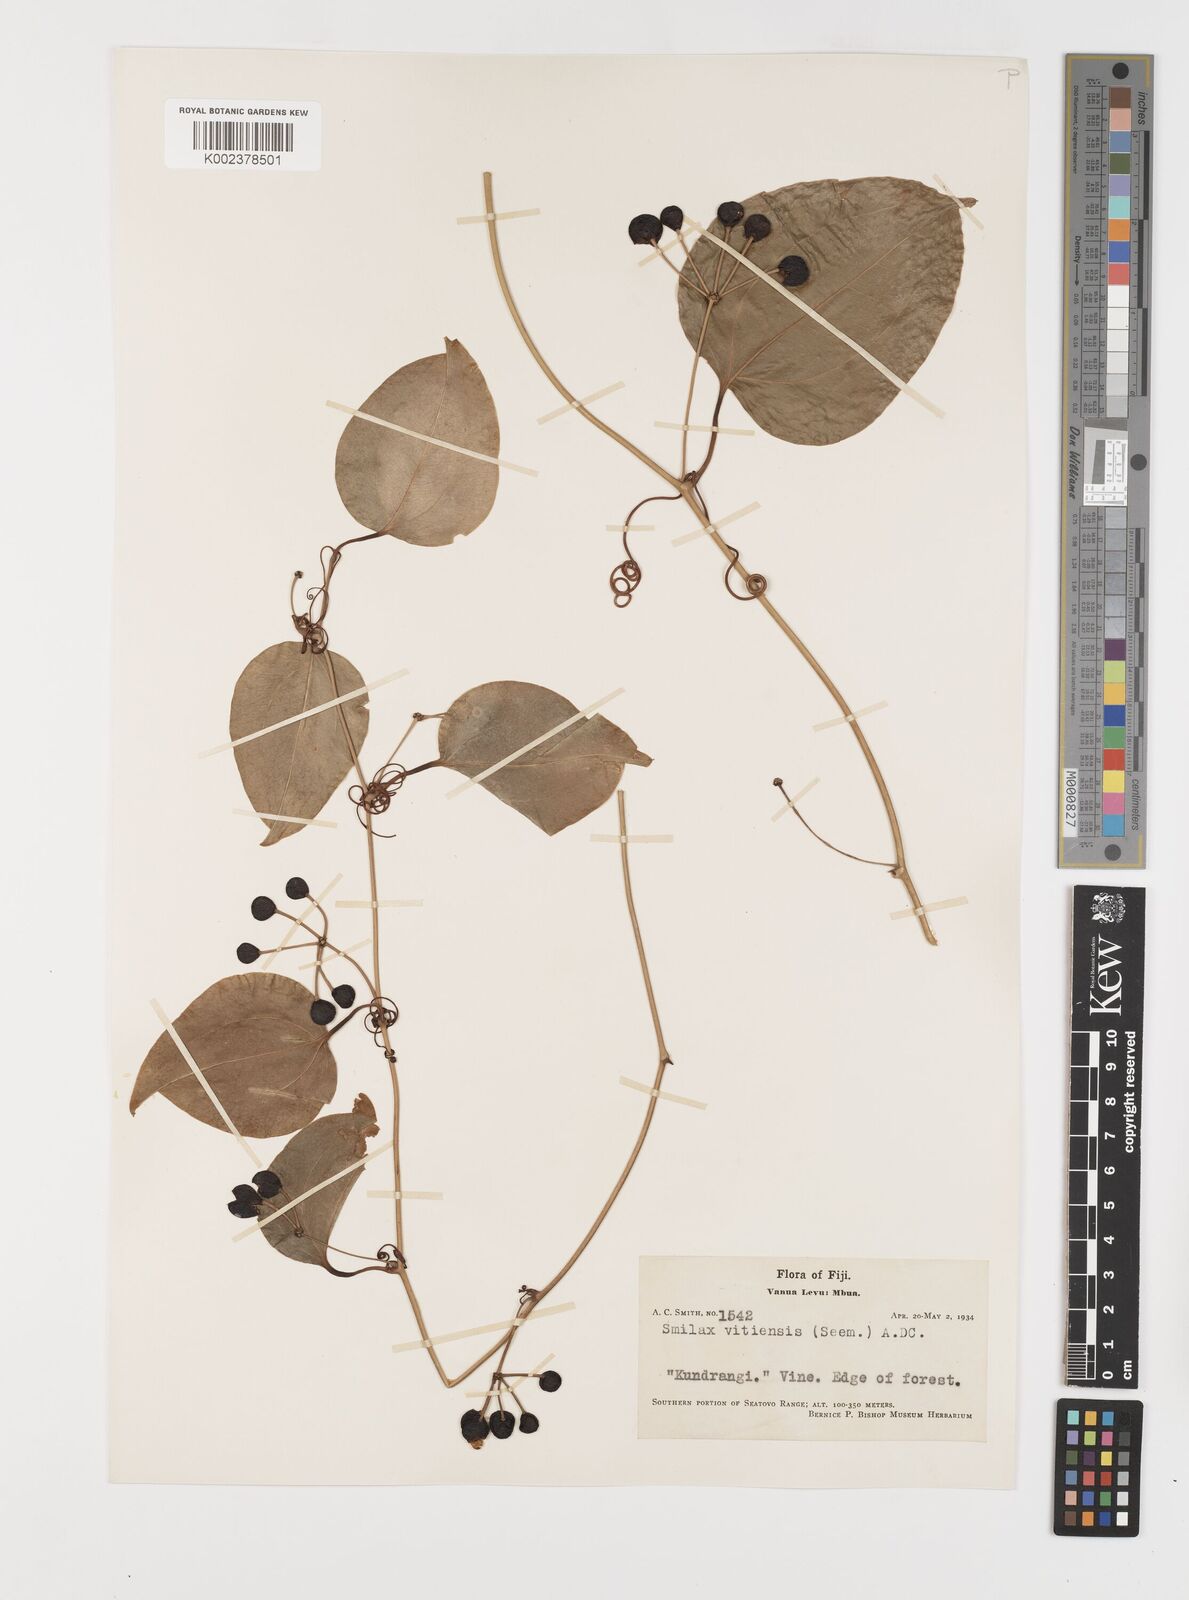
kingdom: Plantae
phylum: Tracheophyta
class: Liliopsida
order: Liliales
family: Smilacaceae
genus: Smilax
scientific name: Smilax vitiensis
